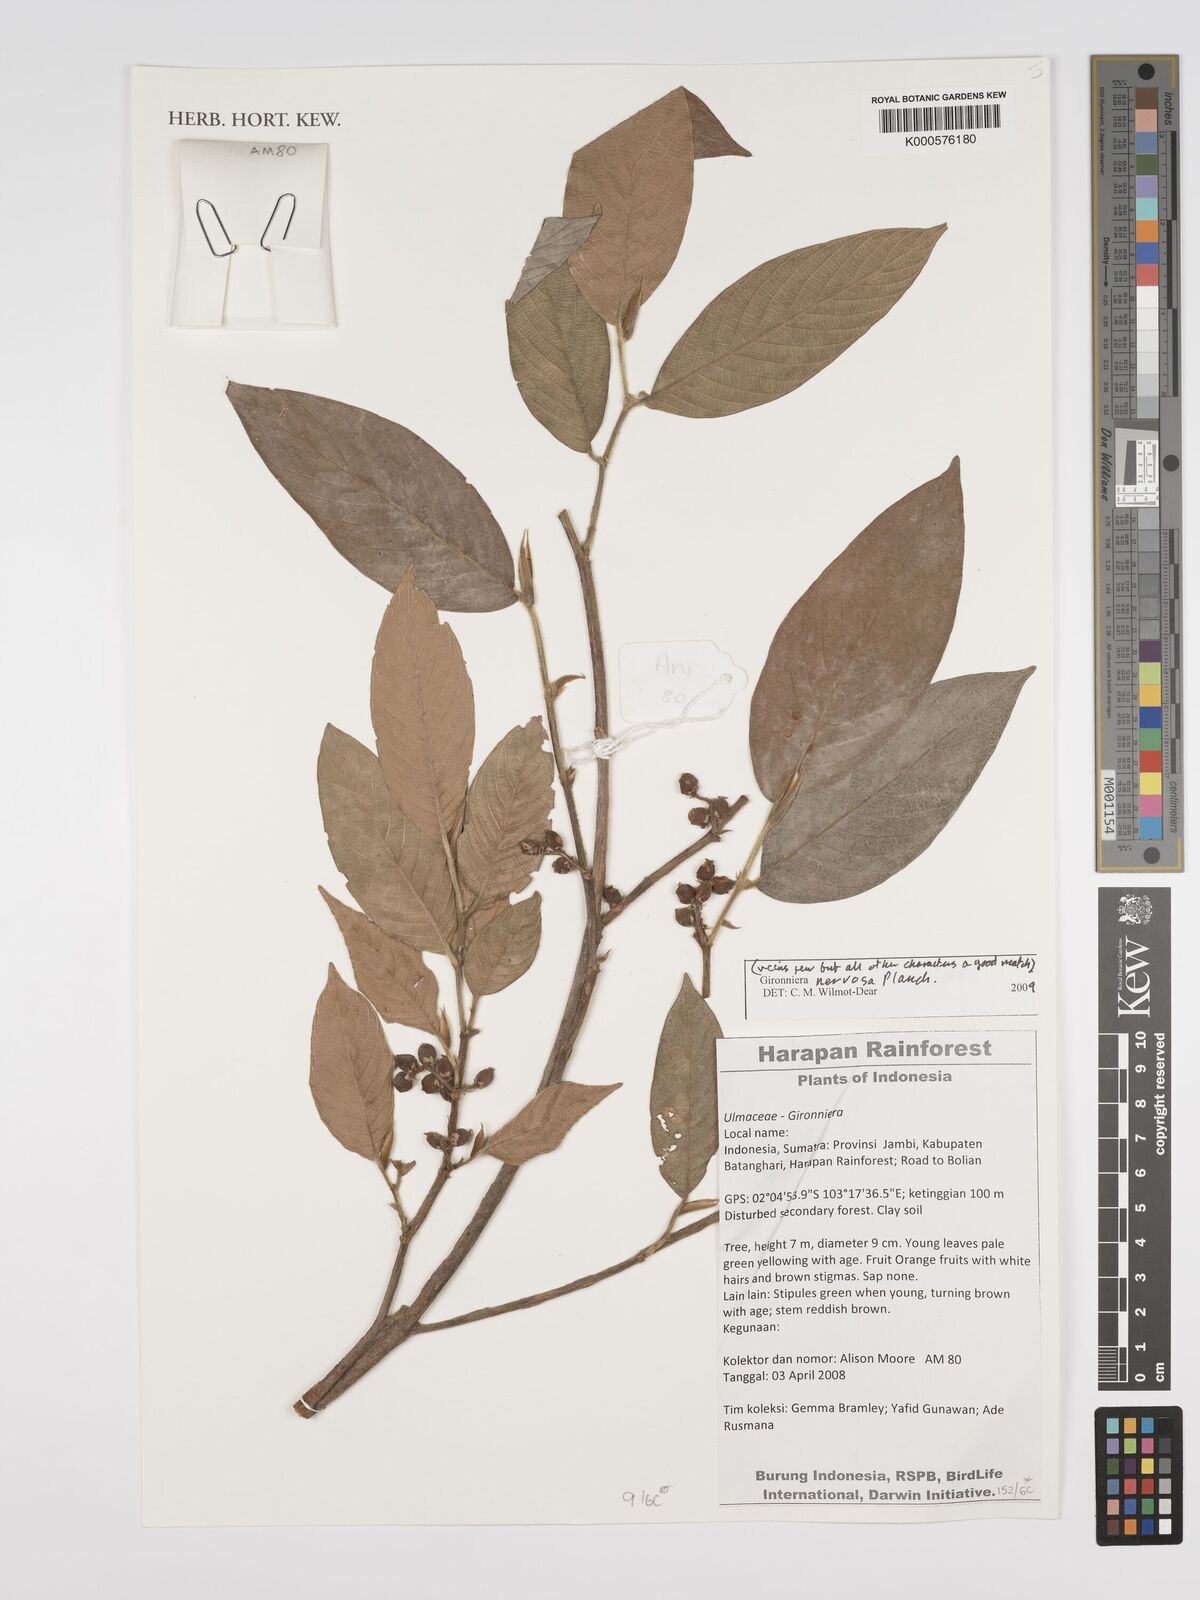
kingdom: Plantae
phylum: Tracheophyta
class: Magnoliopsida
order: Rosales
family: Cannabaceae
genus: Gironniera
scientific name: Gironniera nervosa
